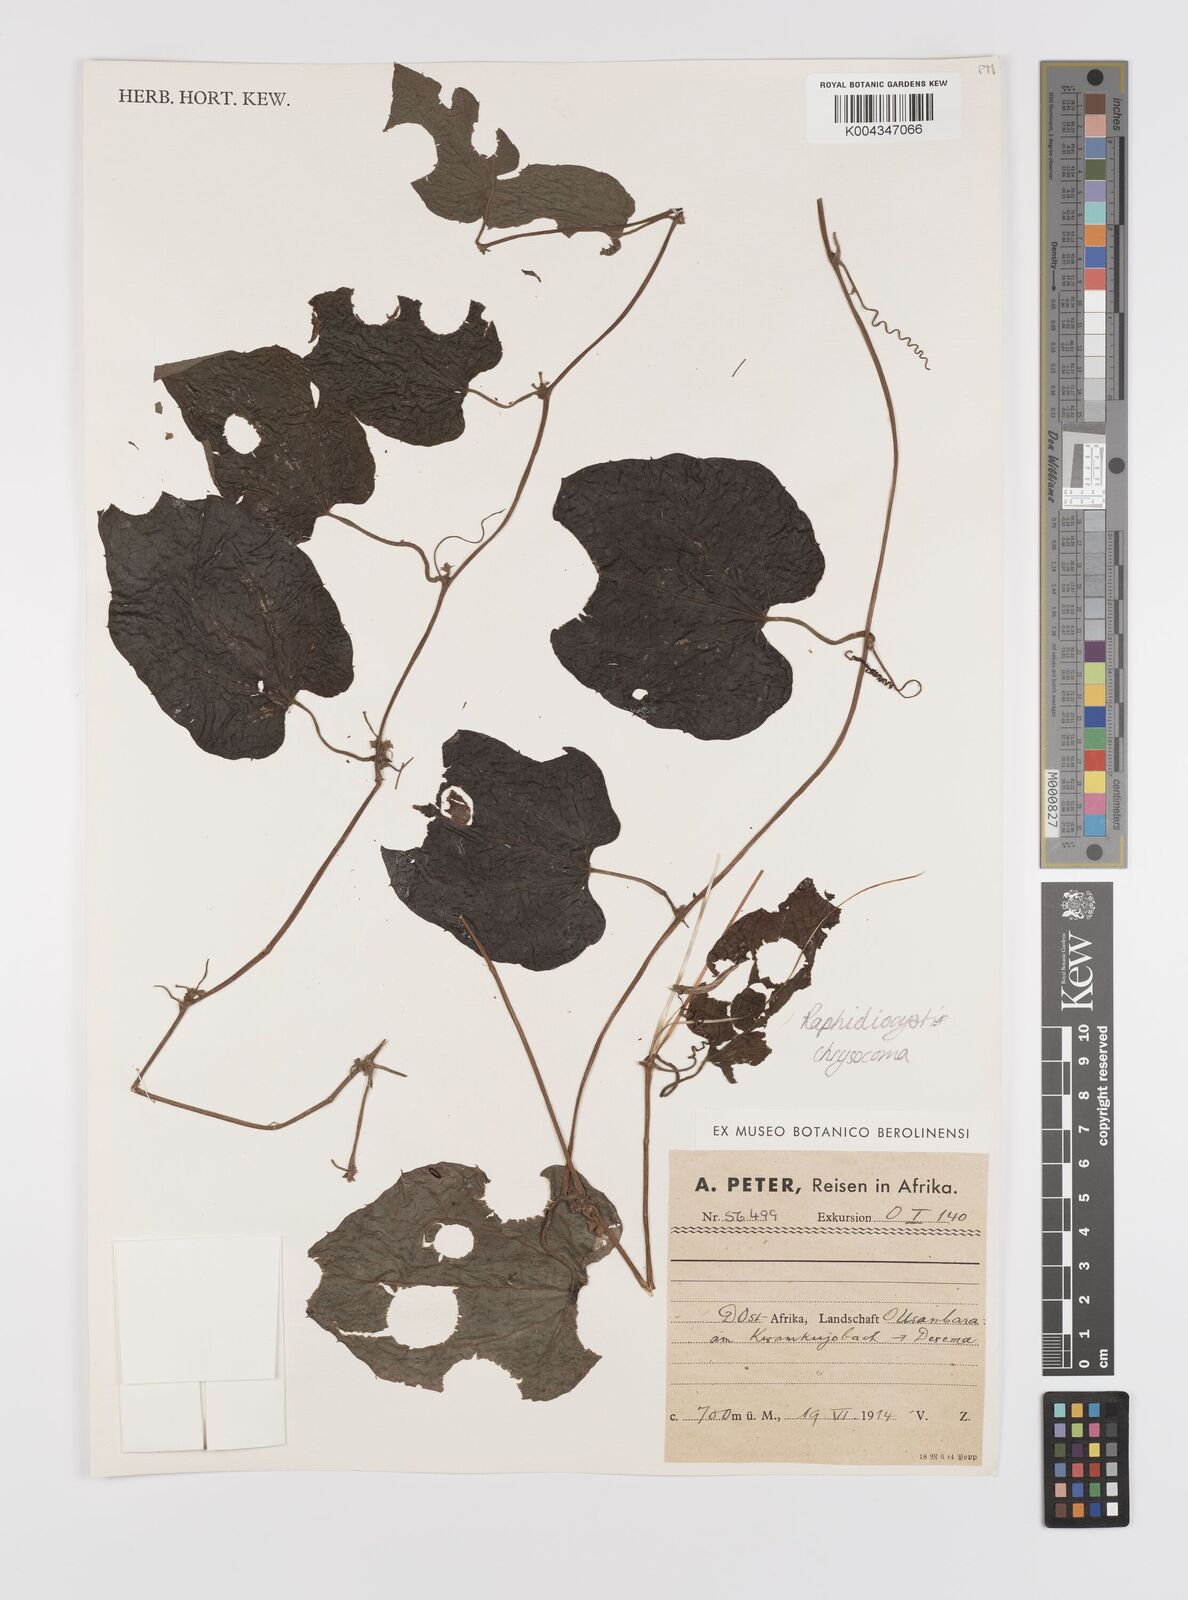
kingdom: Plantae
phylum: Tracheophyta
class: Magnoliopsida
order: Cucurbitales
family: Cucurbitaceae
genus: Raphidiocystis
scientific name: Raphidiocystis chrysocoma
